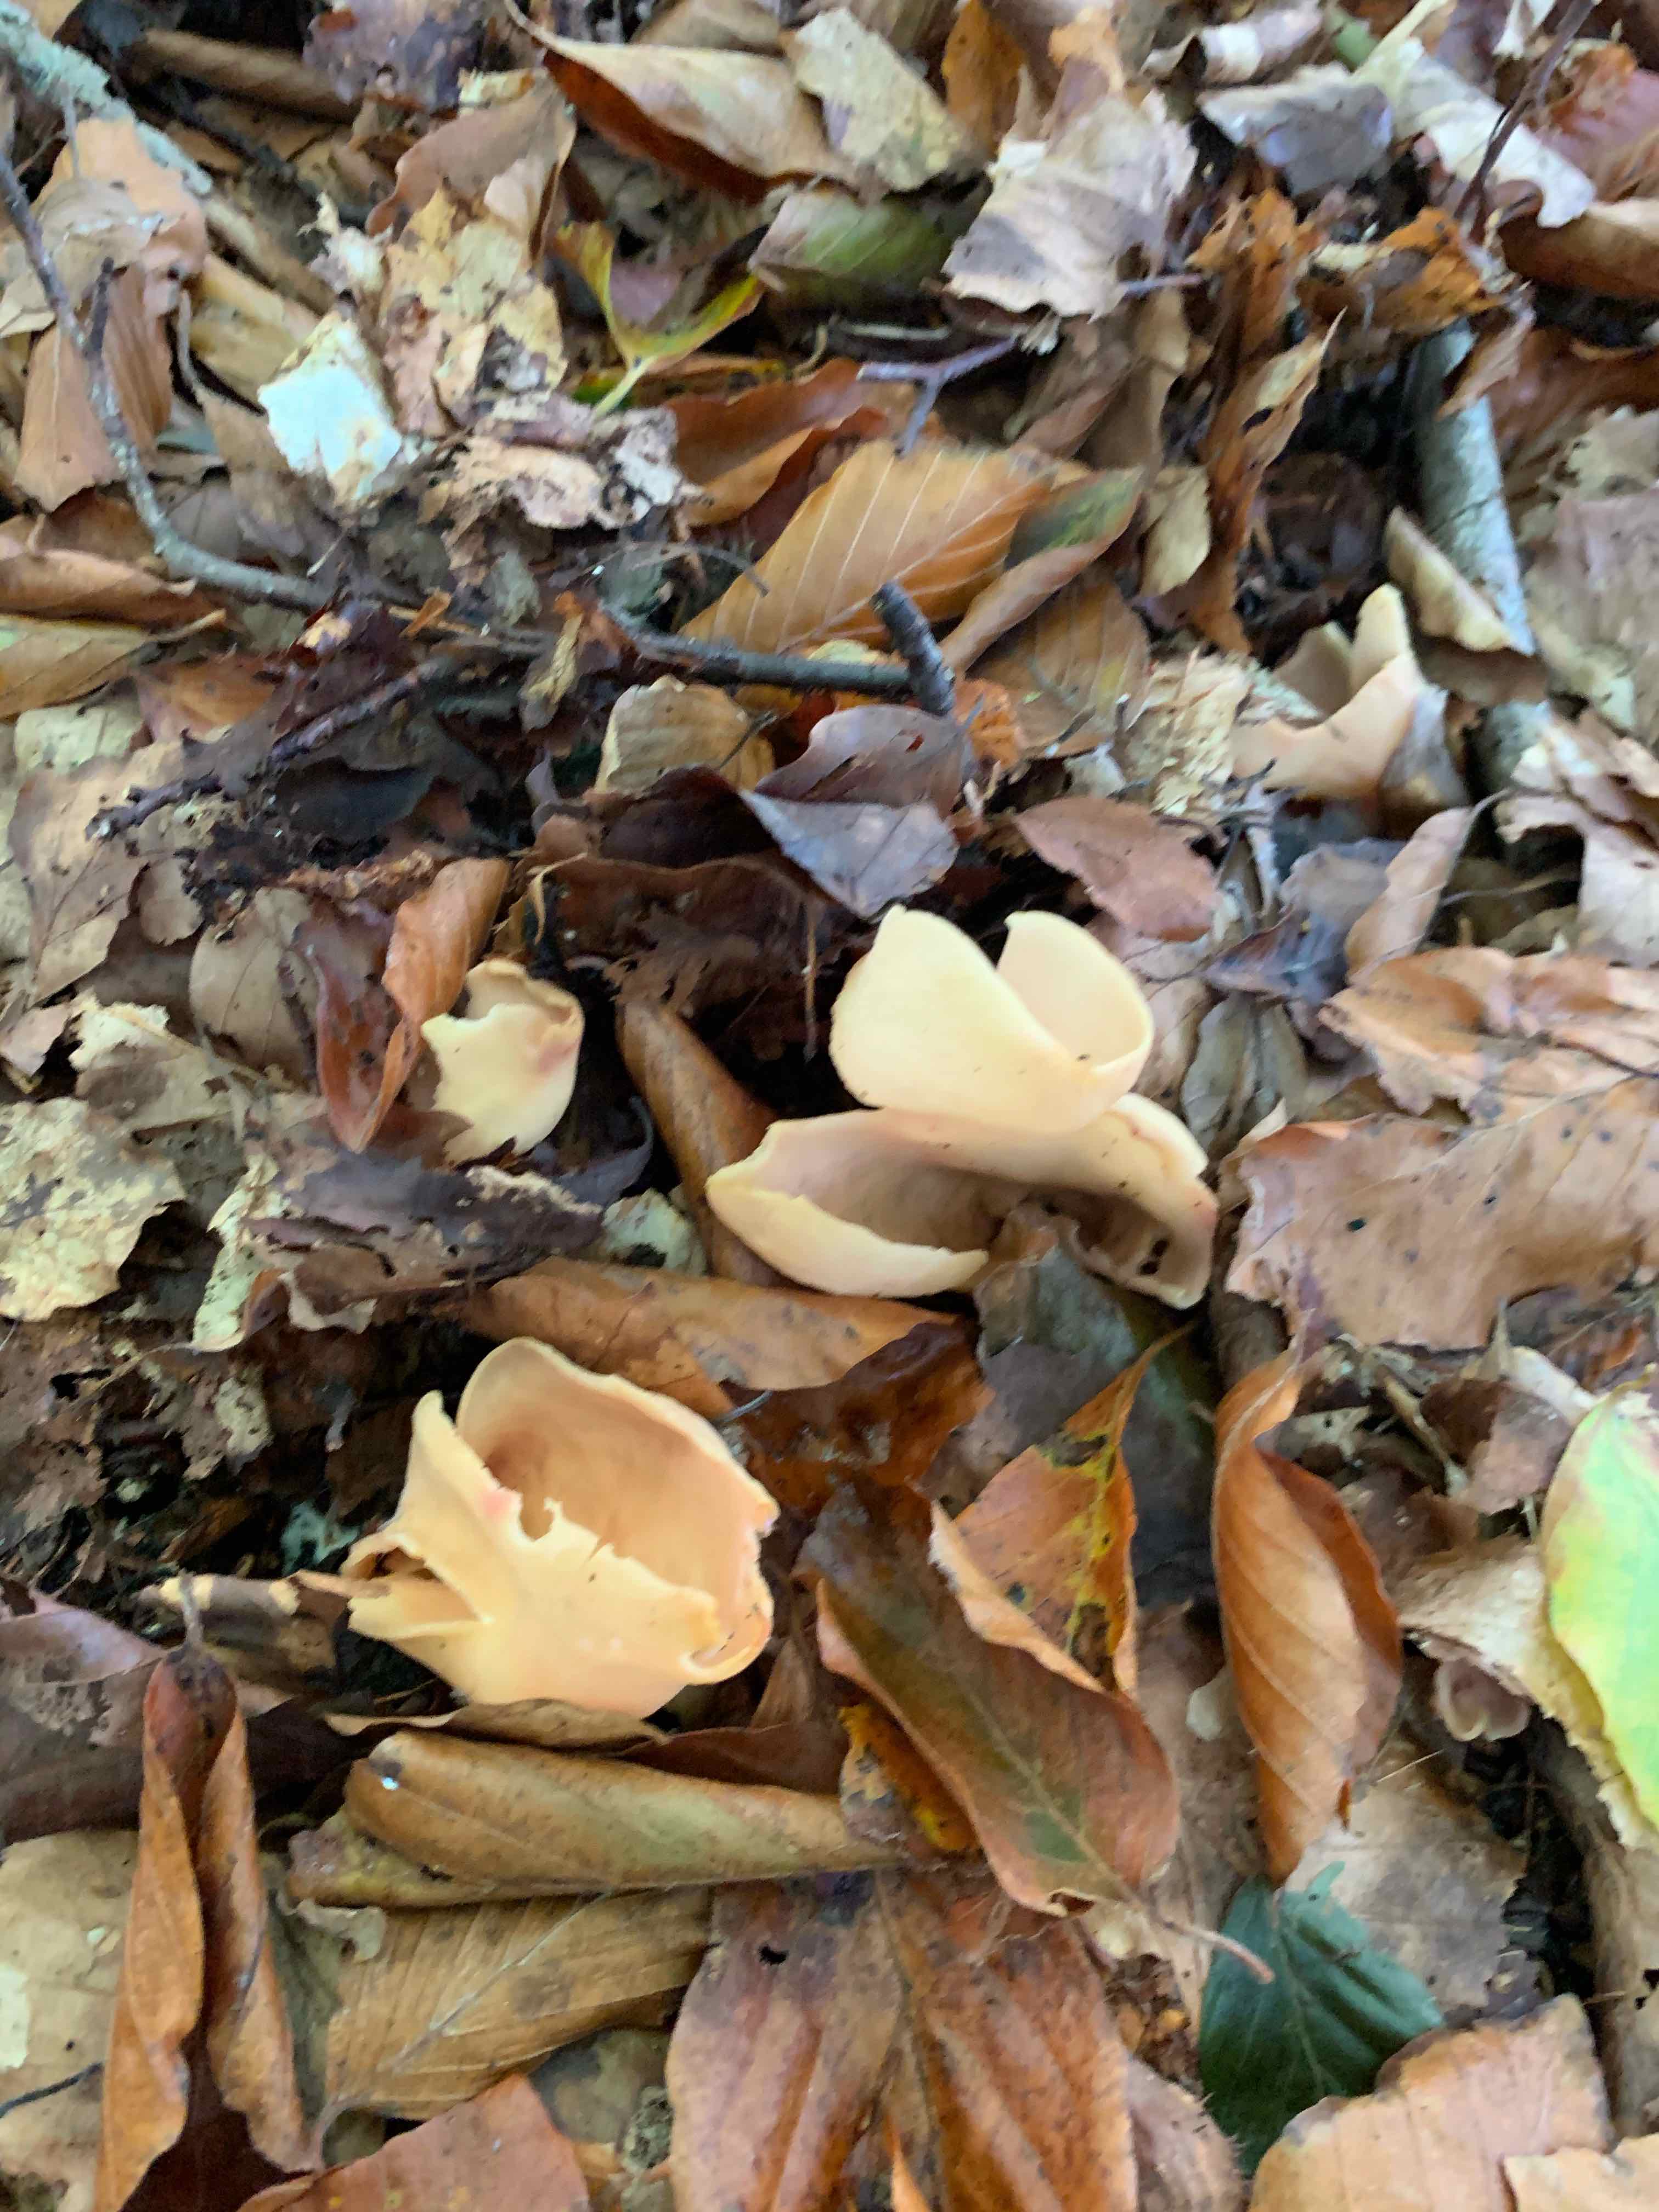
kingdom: Fungi
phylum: Ascomycota
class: Pezizomycetes
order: Pezizales
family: Otideaceae
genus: Otidea
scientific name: Otidea onotica
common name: æsel-ørebæger
